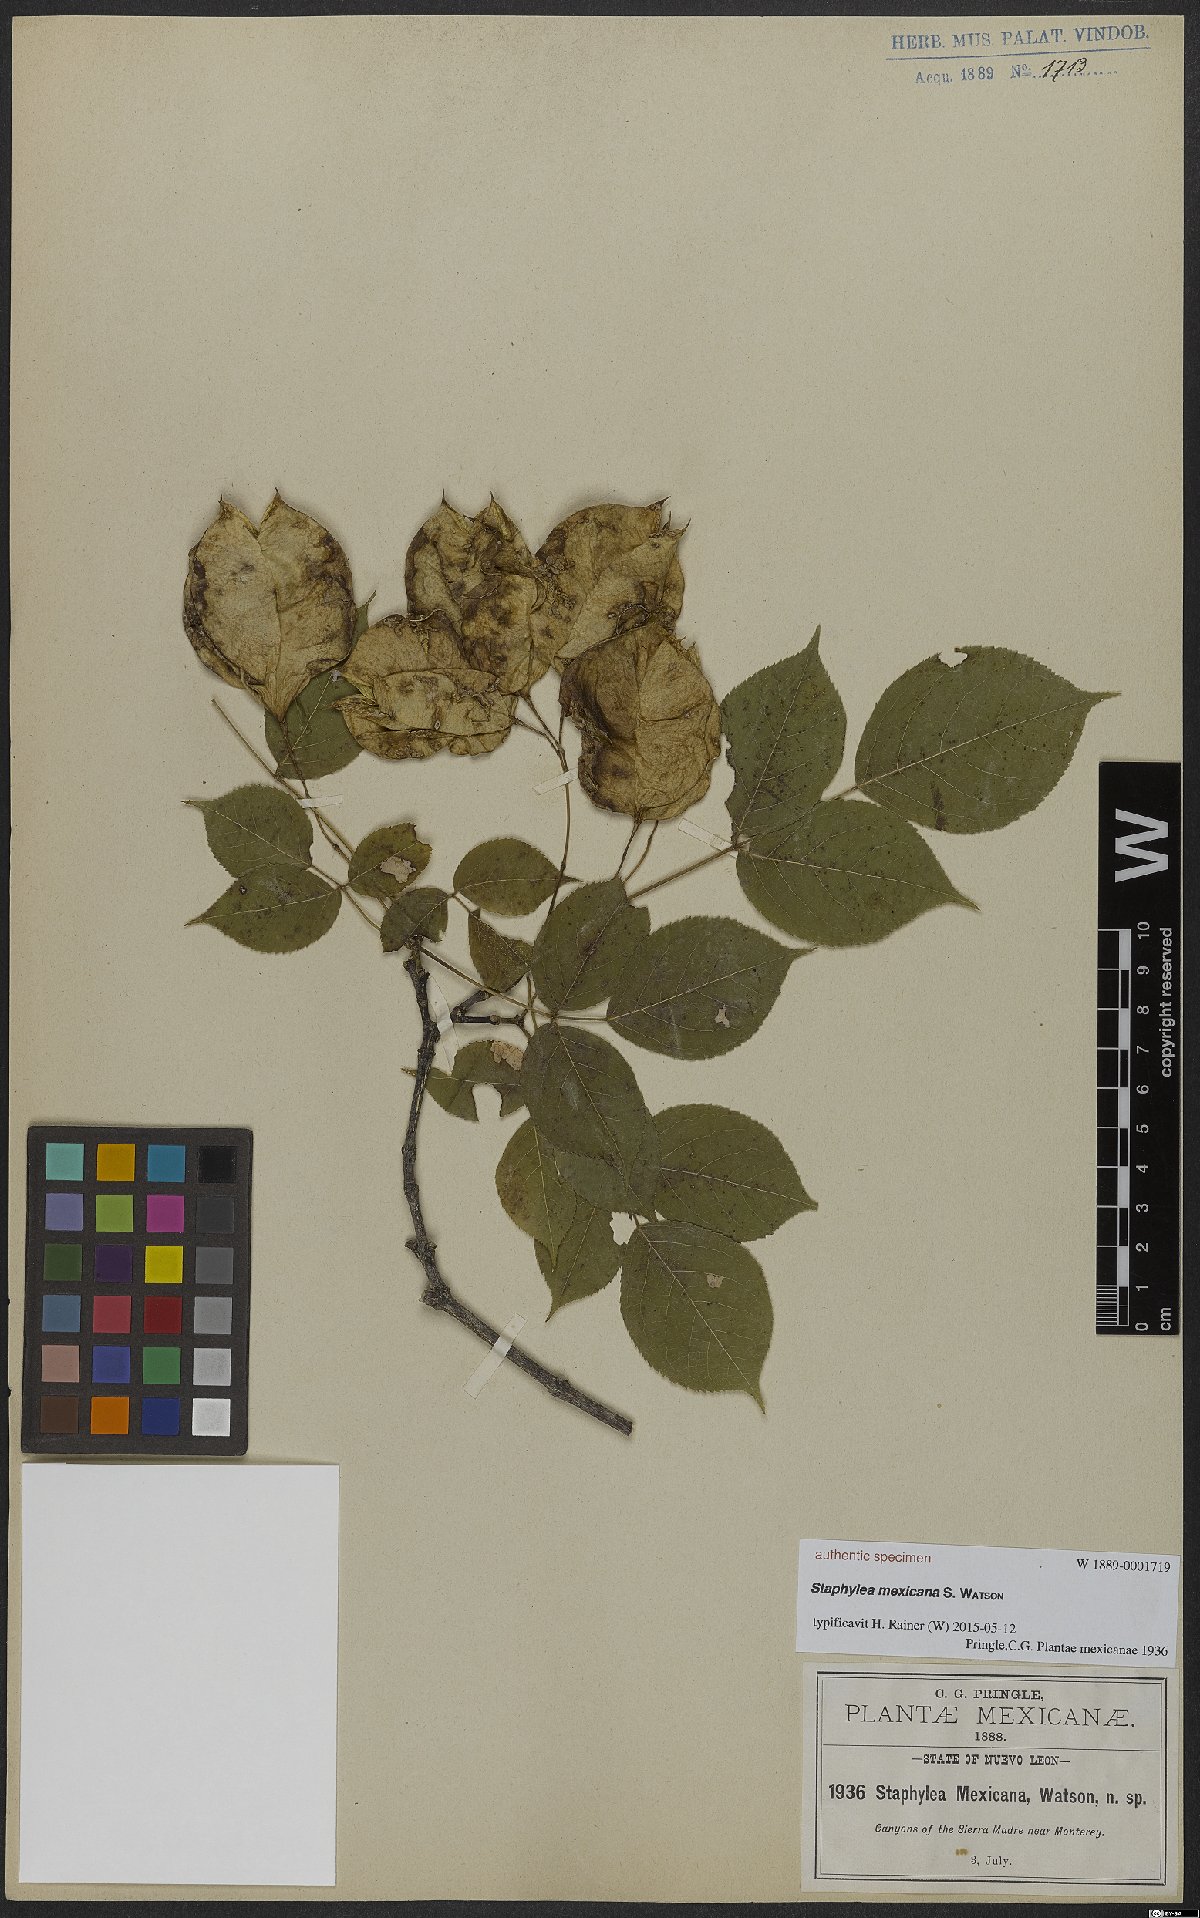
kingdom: Plantae
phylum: Tracheophyta
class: Magnoliopsida
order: Crossosomatales
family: Staphyleaceae
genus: Staphylea
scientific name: Staphylea mexicana
